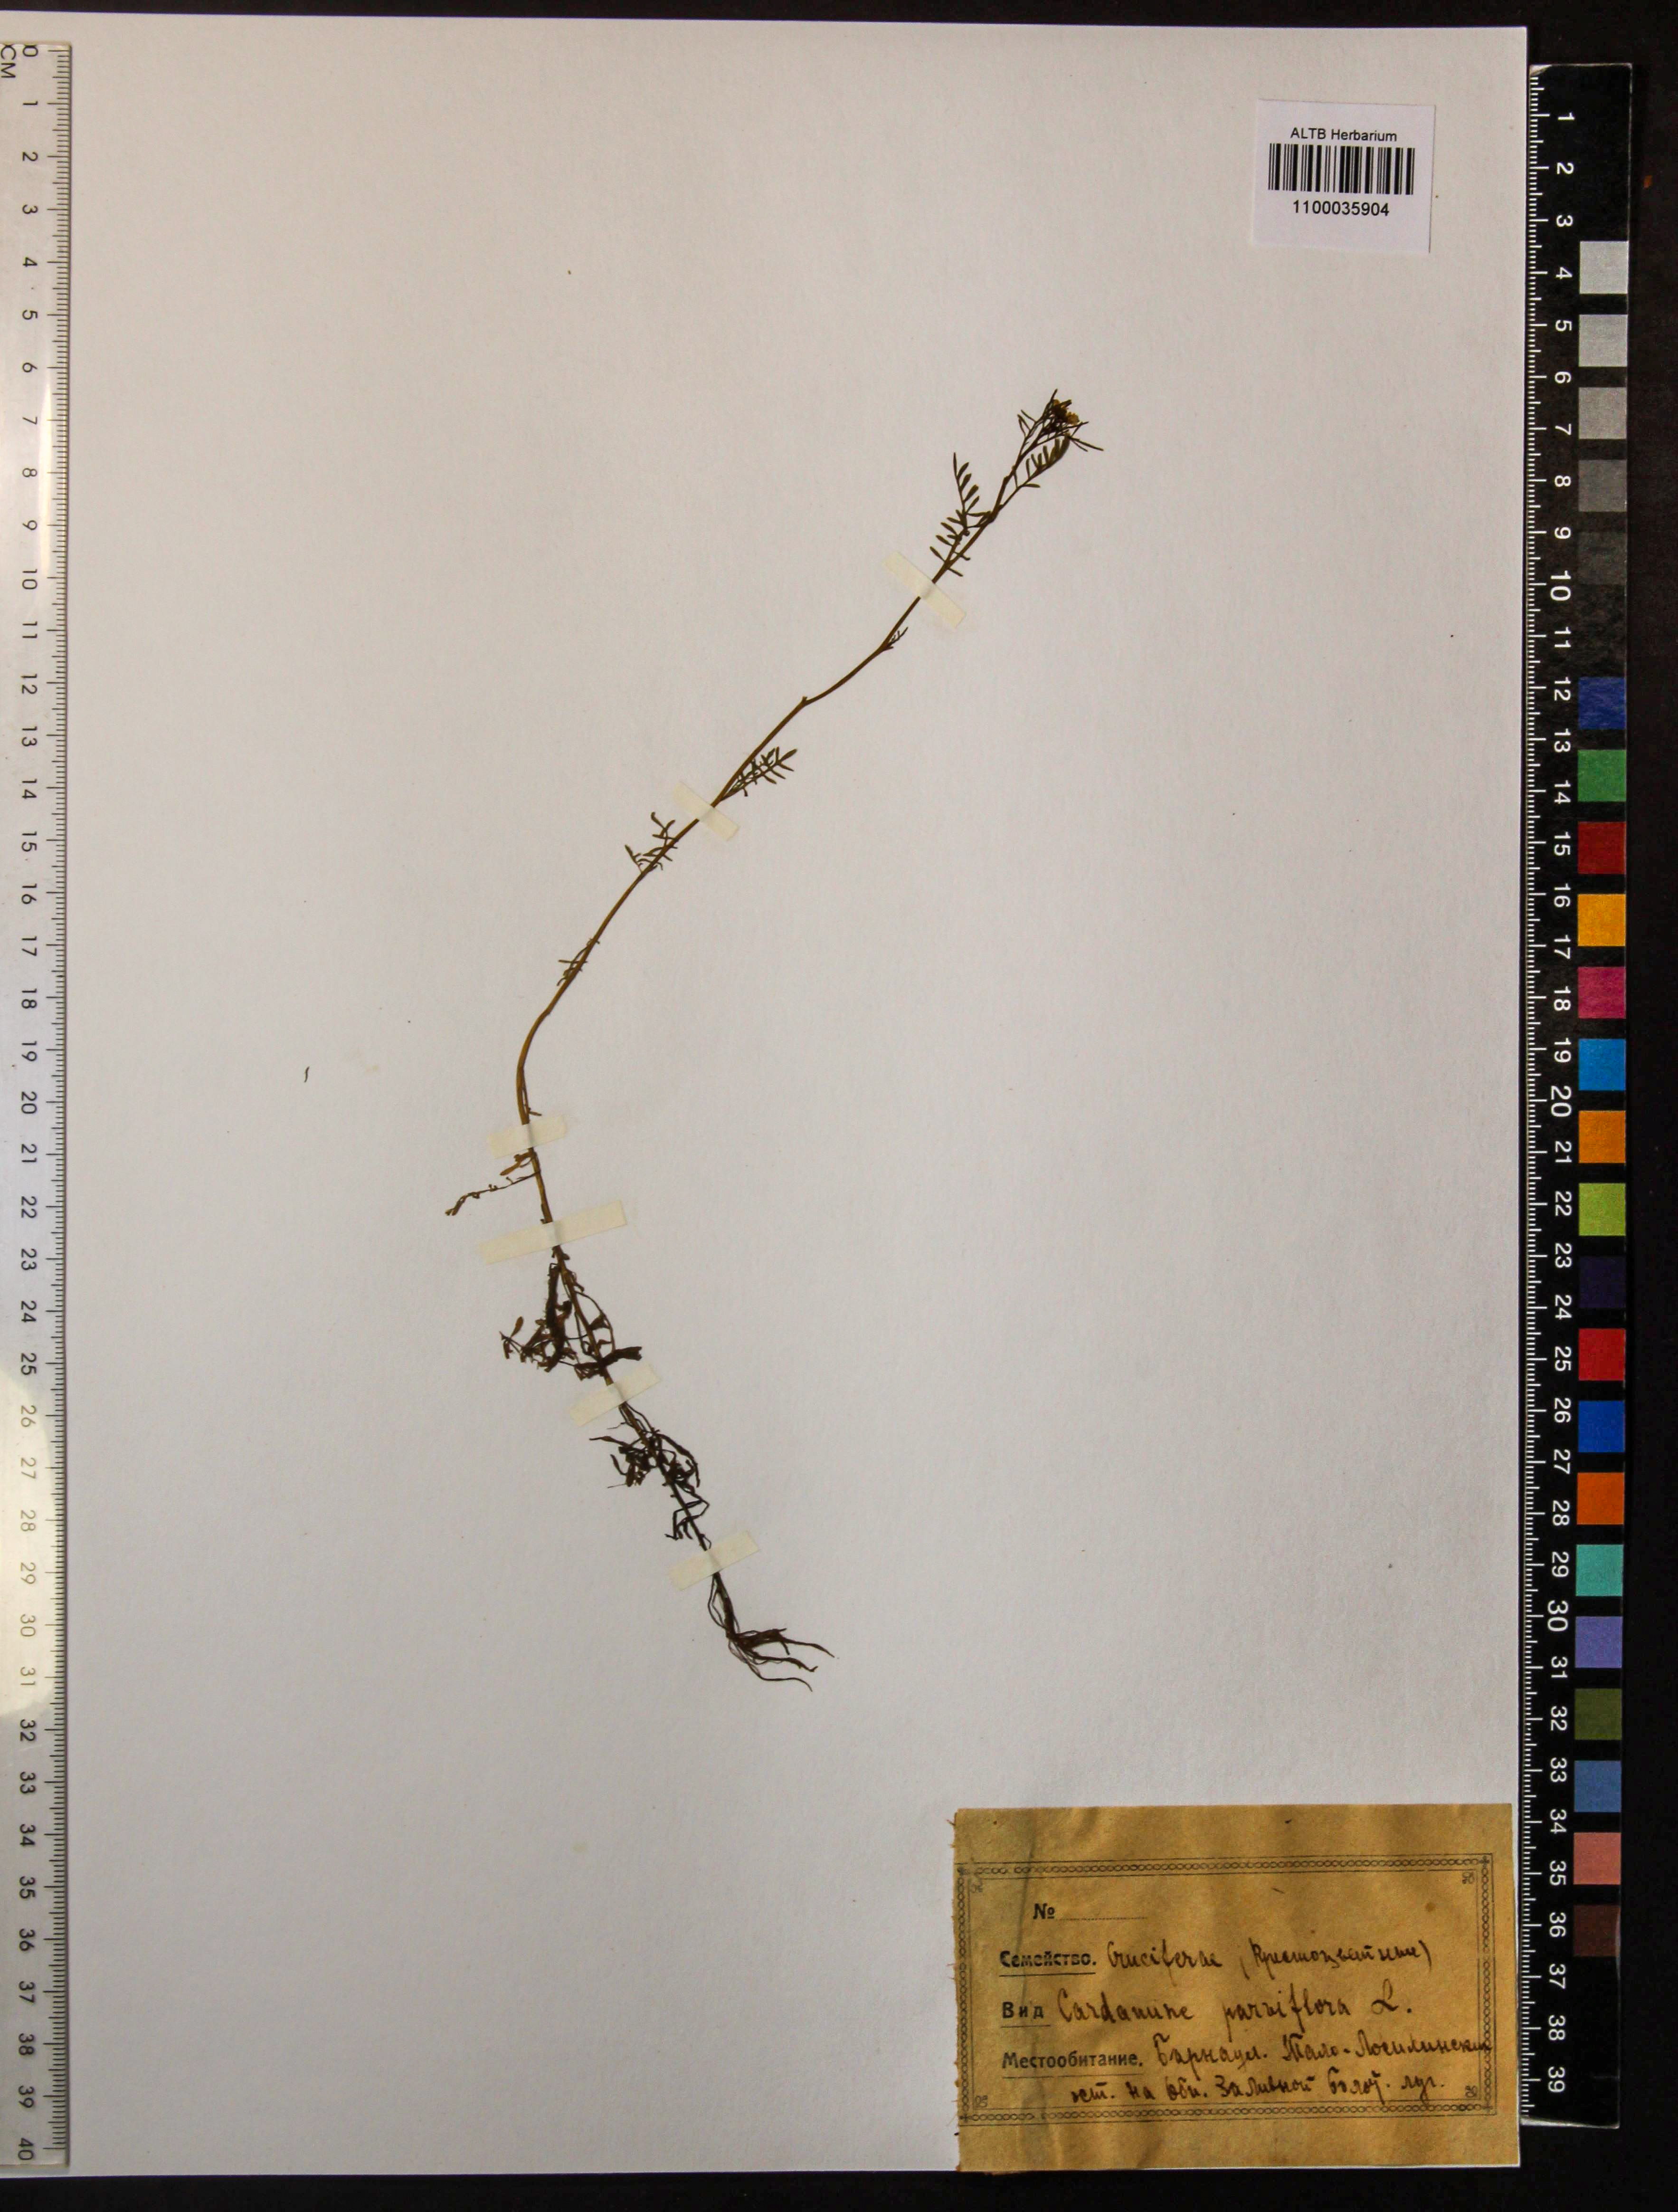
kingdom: Plantae
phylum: Tracheophyta
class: Magnoliopsida
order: Brassicales
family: Brassicaceae
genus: Cardamine
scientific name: Cardamine parviflora
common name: Sand bittercress
